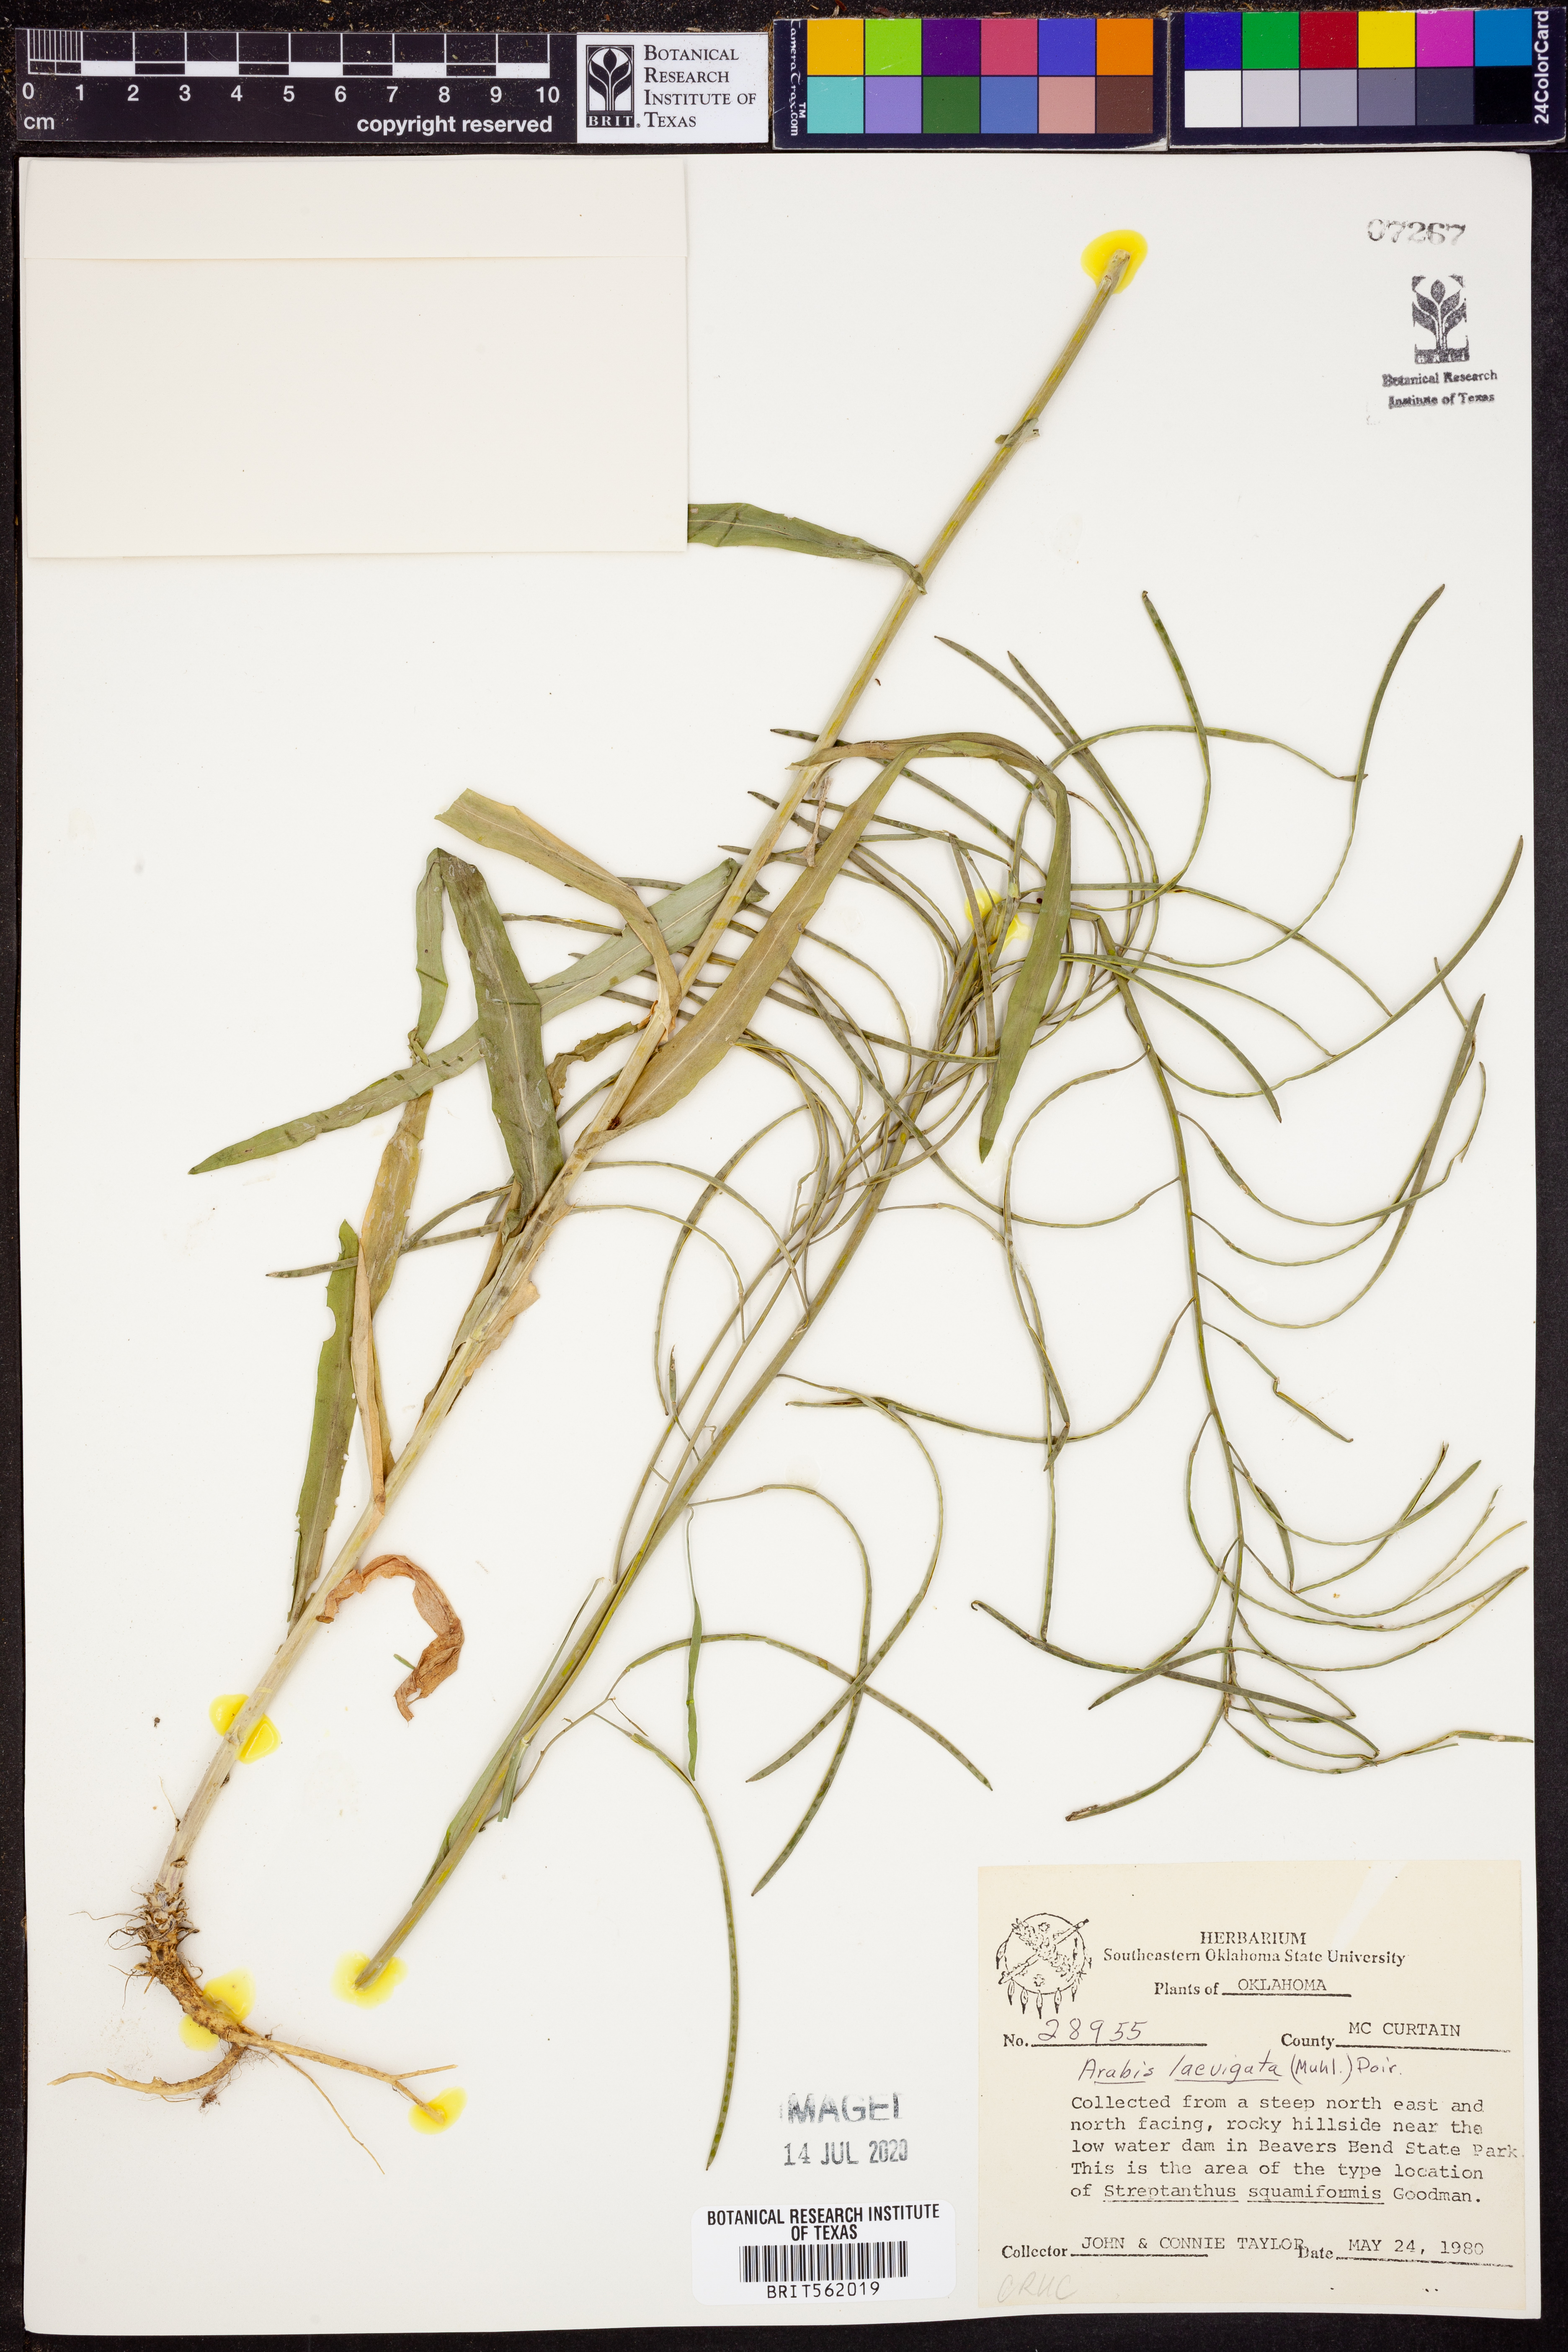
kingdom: Plantae
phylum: Tracheophyta
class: Magnoliopsida
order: Brassicales
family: Brassicaceae
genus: Arabis
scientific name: Arabis laevigata
